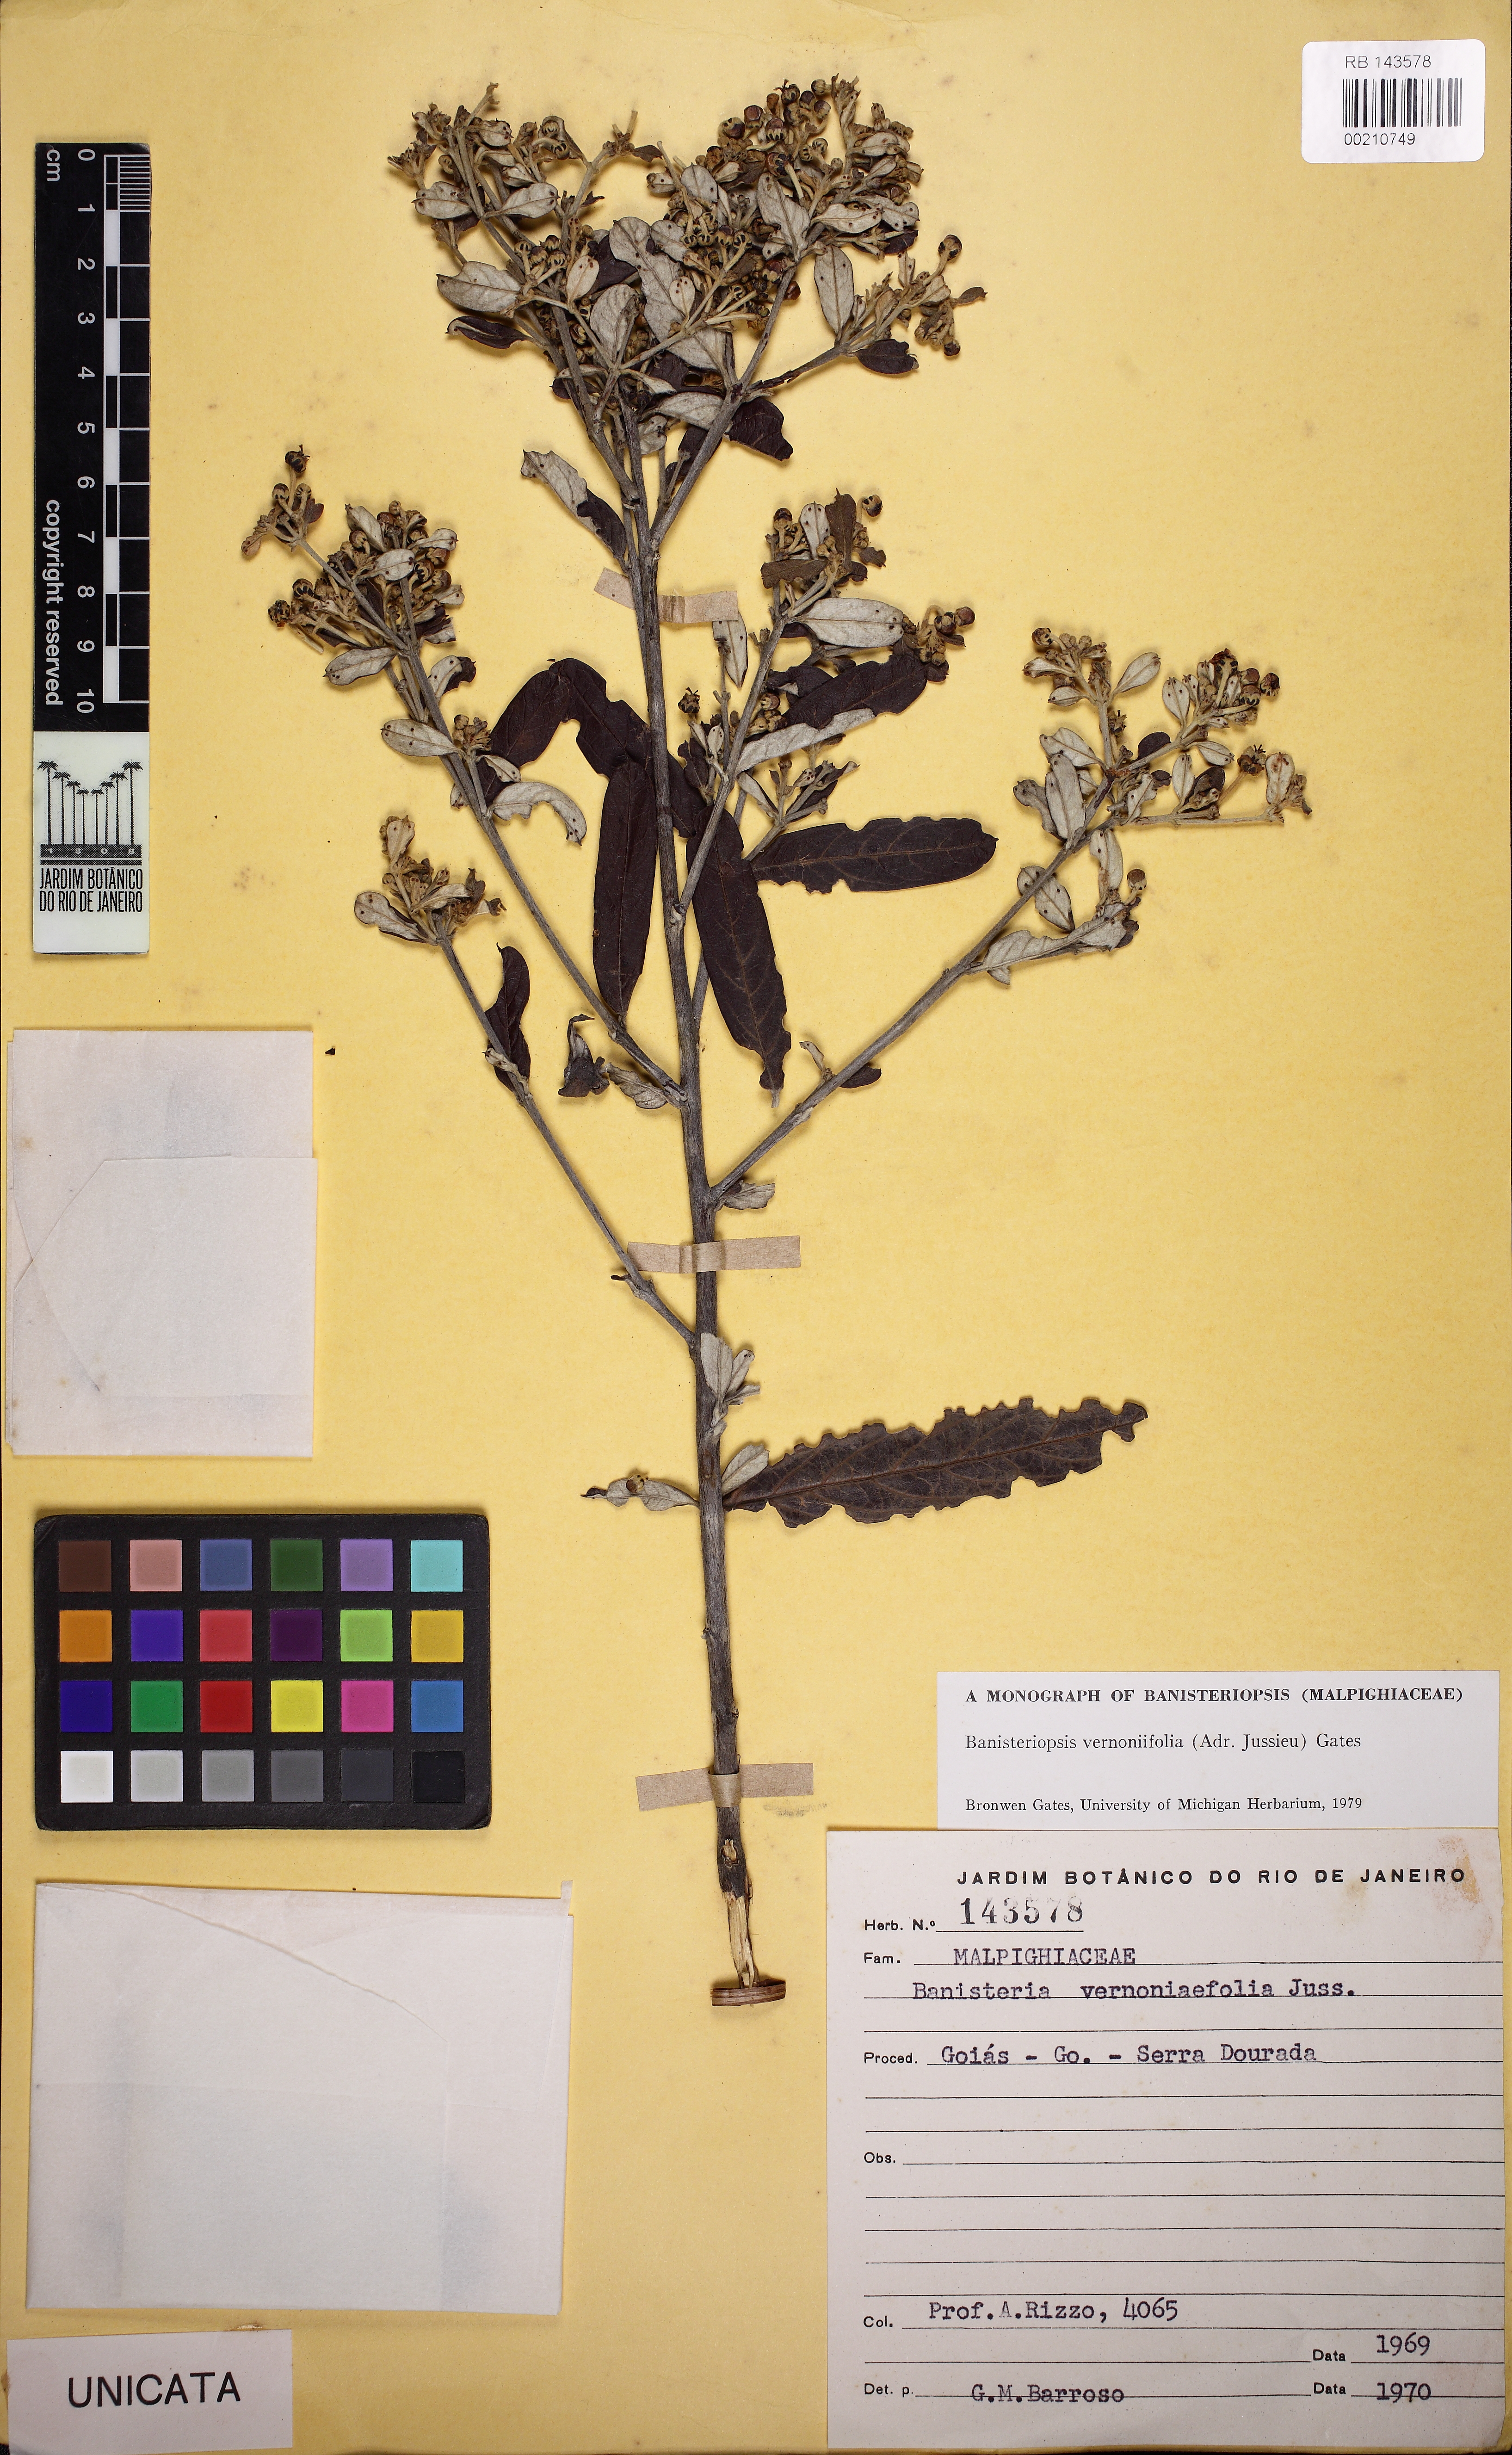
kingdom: Plantae
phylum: Tracheophyta
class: Magnoliopsida
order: Malpighiales
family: Malpighiaceae
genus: Banisteriopsis
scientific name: Banisteriopsis vernoniifolia
